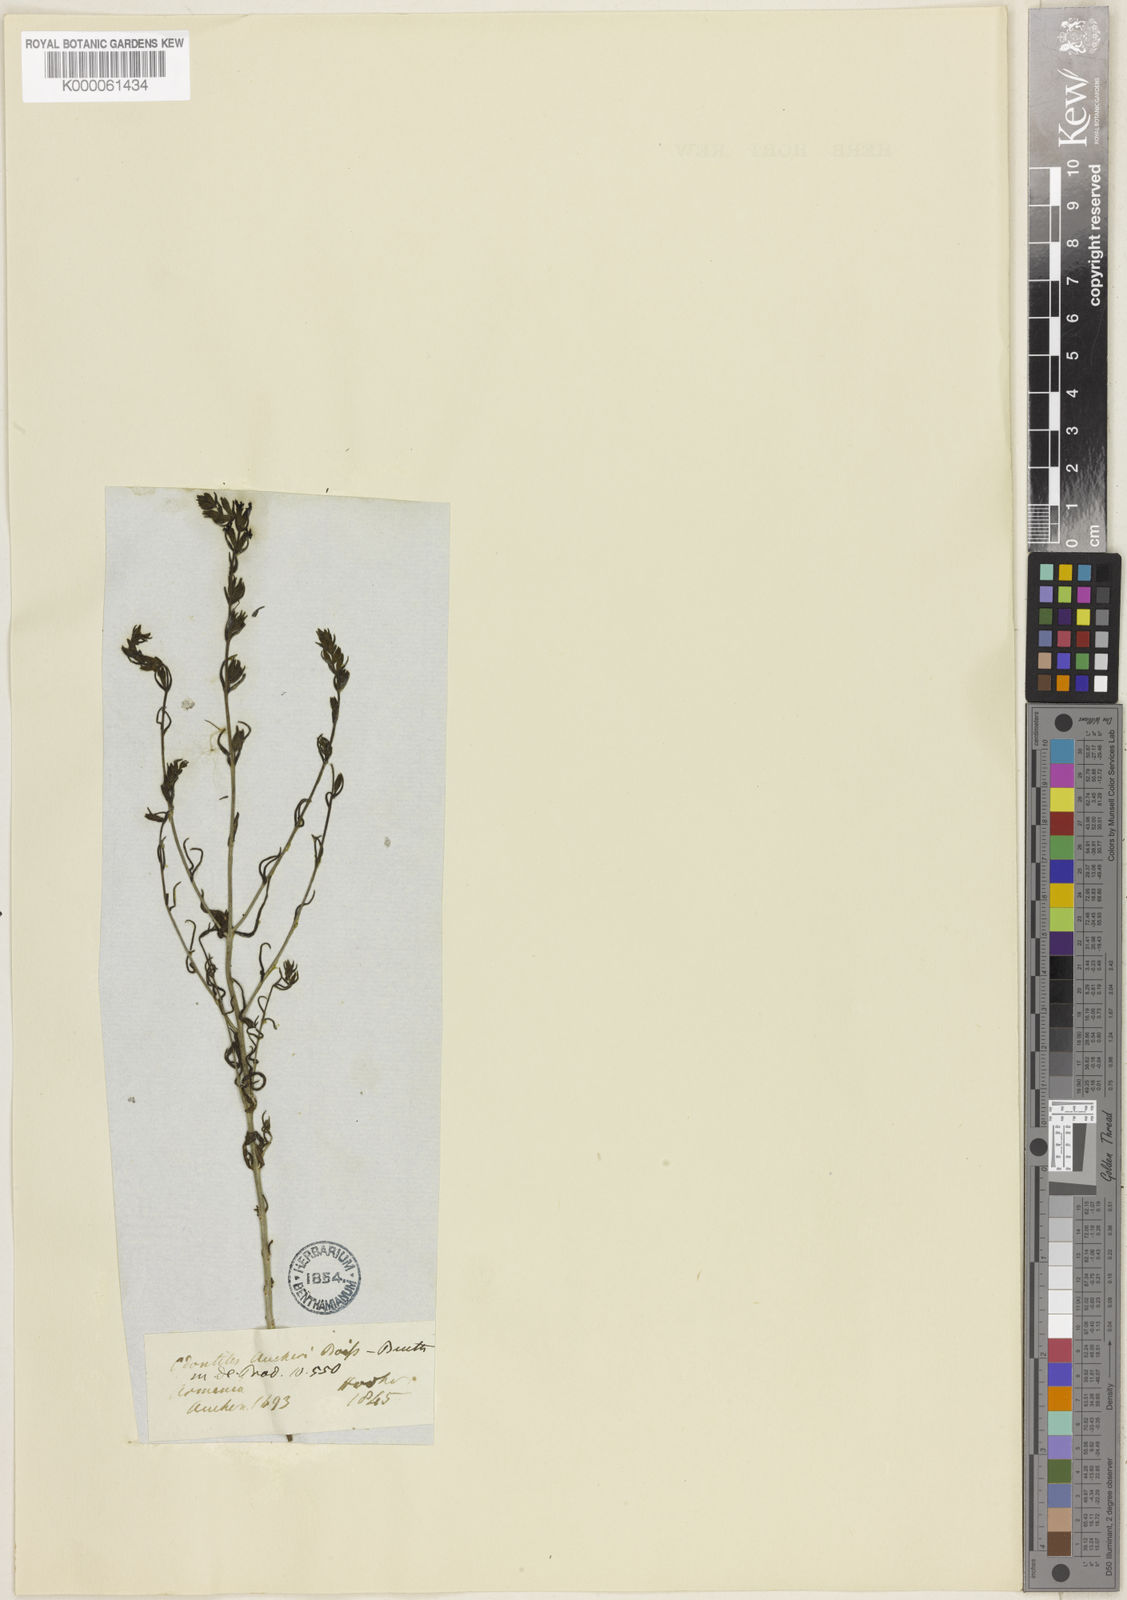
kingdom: Plantae
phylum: Tracheophyta
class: Magnoliopsida
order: Lamiales
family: Orobanchaceae
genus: Odontites
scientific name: Odontites aucheri
